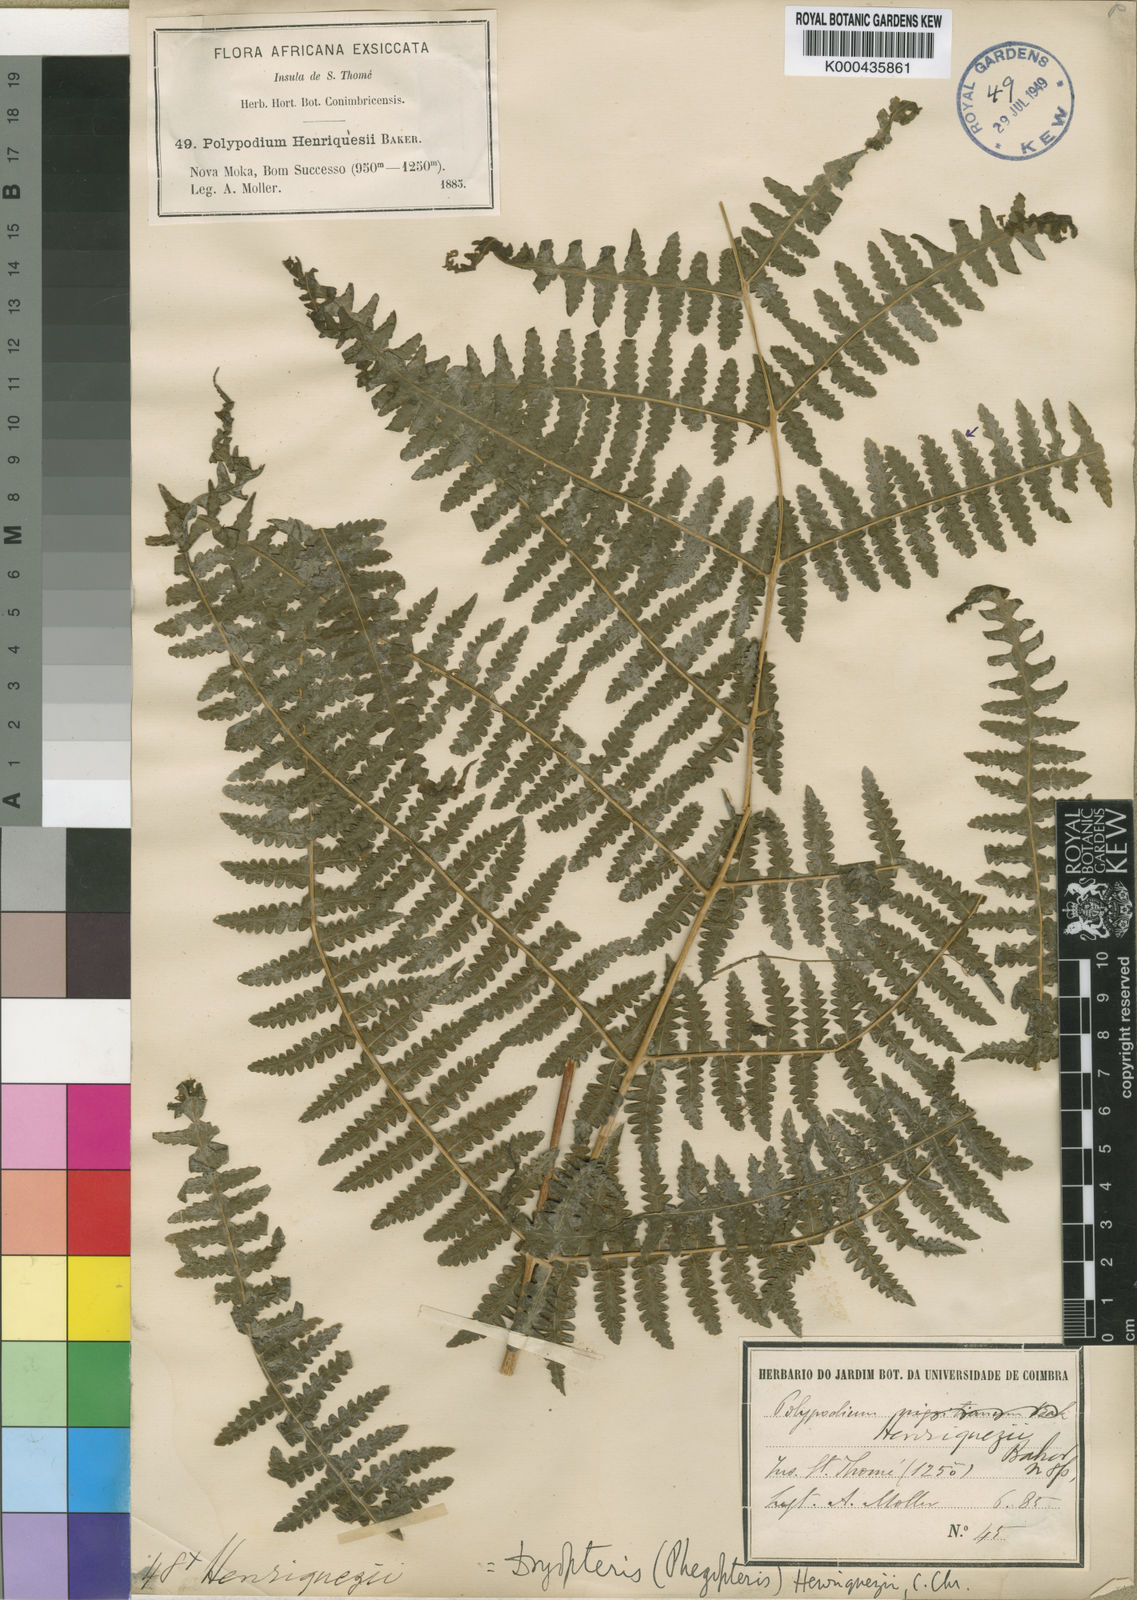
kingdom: Plantae
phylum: Tracheophyta
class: Polypodiopsida
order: Polypodiales
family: Thelypteridaceae
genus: Pseudophegopteris
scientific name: Pseudophegopteris henriquesii
